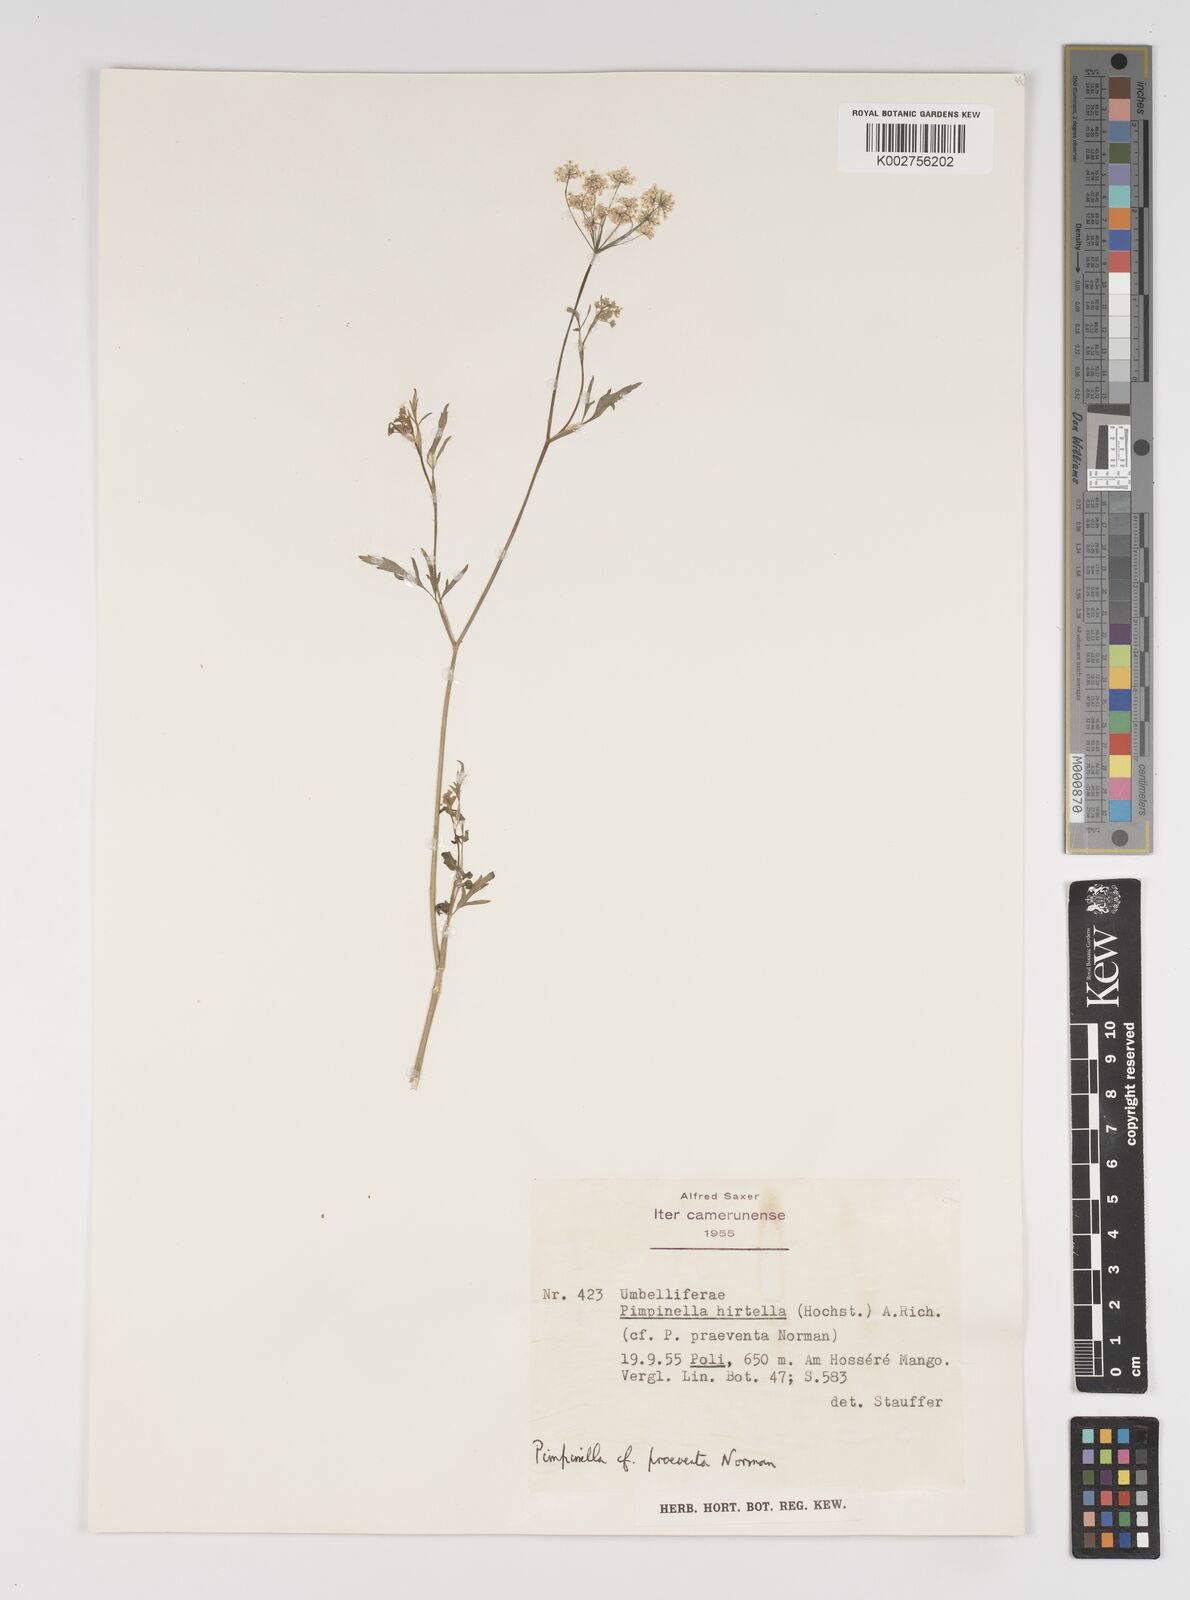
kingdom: Plantae
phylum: Tracheophyta
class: Magnoliopsida
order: Apiales
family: Apiaceae
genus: Pimpinella
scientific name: Pimpinella hirtella
